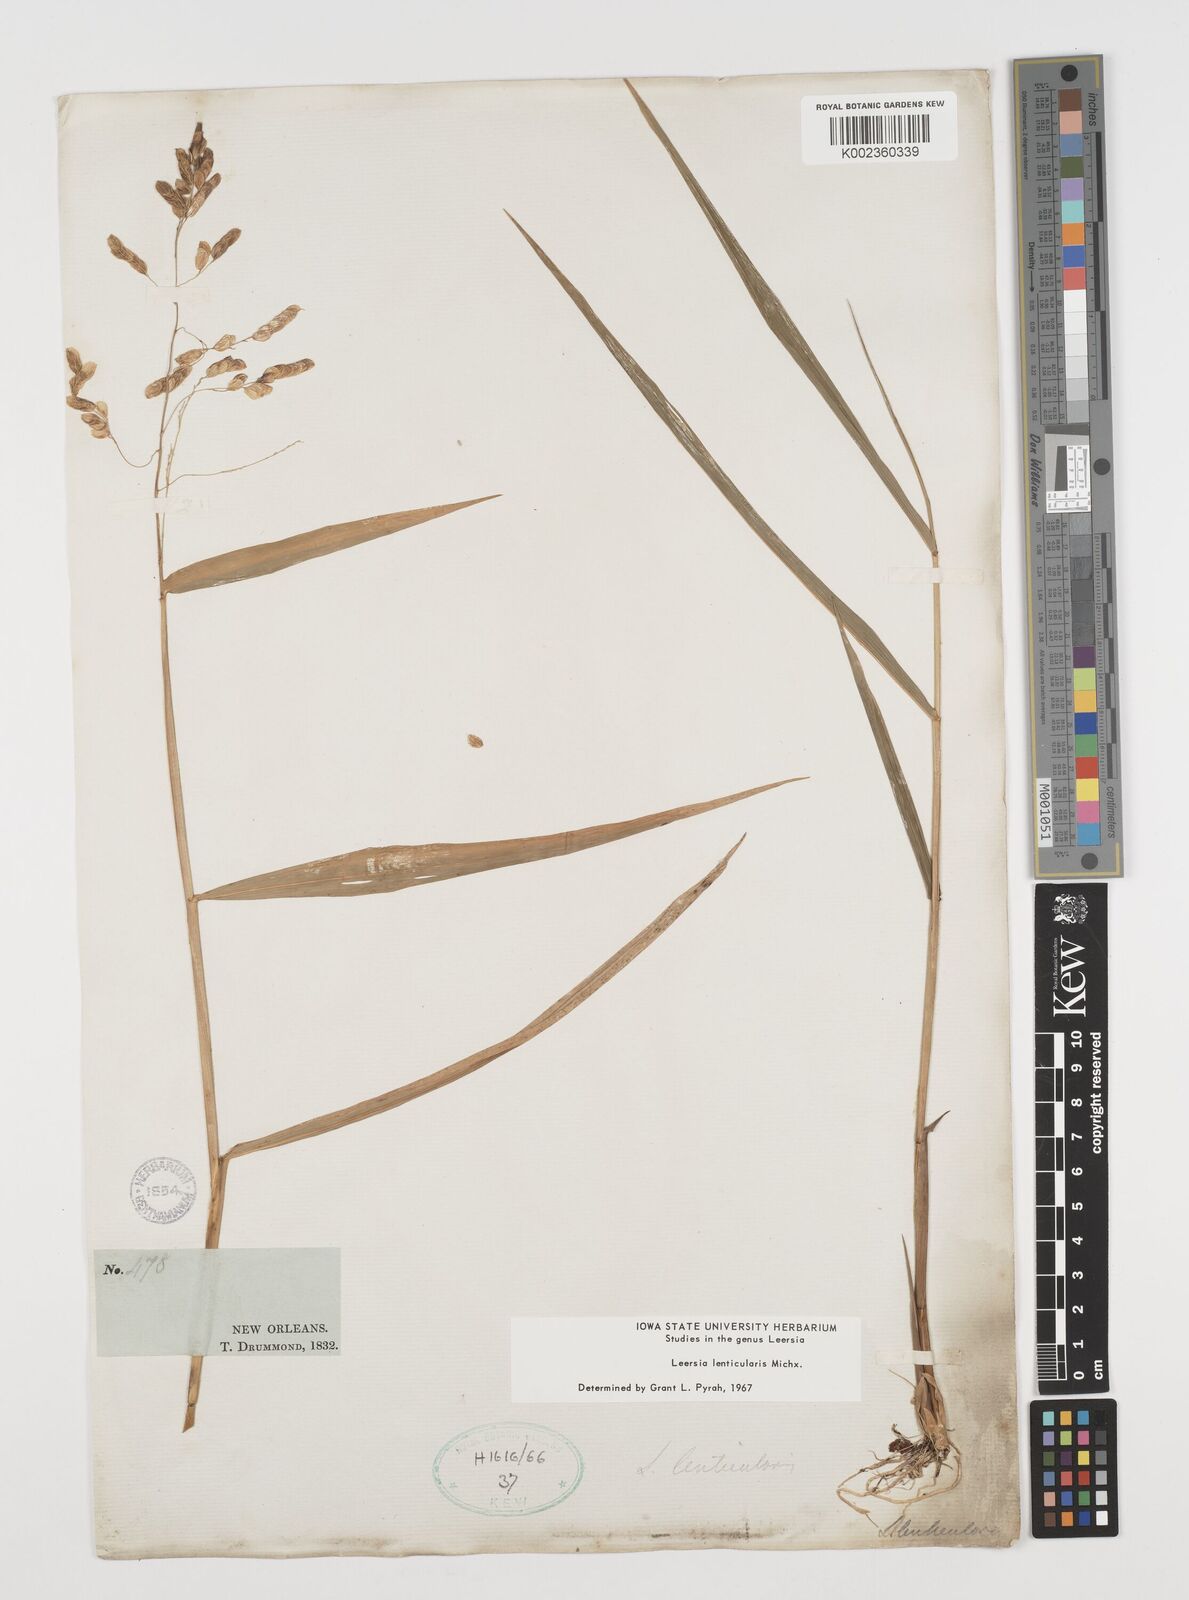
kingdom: Plantae
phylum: Tracheophyta
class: Liliopsida
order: Poales
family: Poaceae
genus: Leersia
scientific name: Leersia lenticularis
